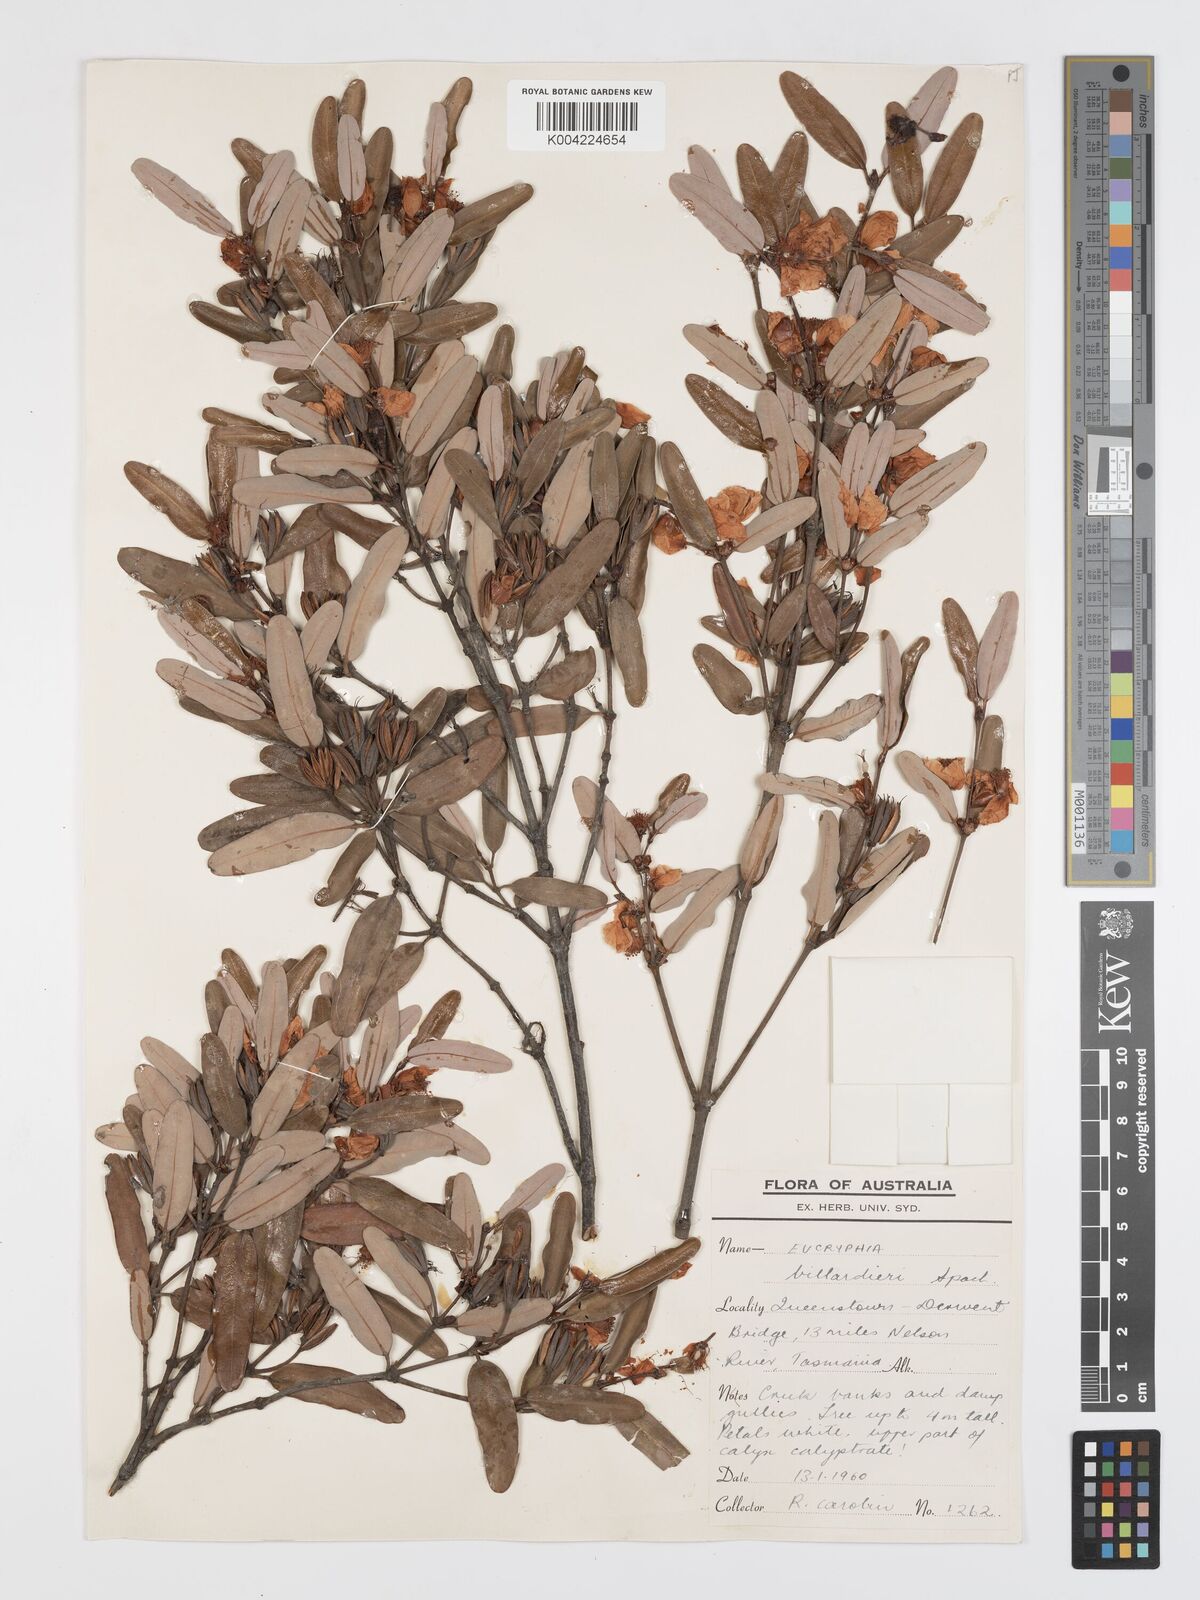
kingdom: Plantae
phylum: Tracheophyta
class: Magnoliopsida
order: Oxalidales
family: Cunoniaceae
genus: Eucryphia
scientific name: Eucryphia lucida
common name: Leatherwood
